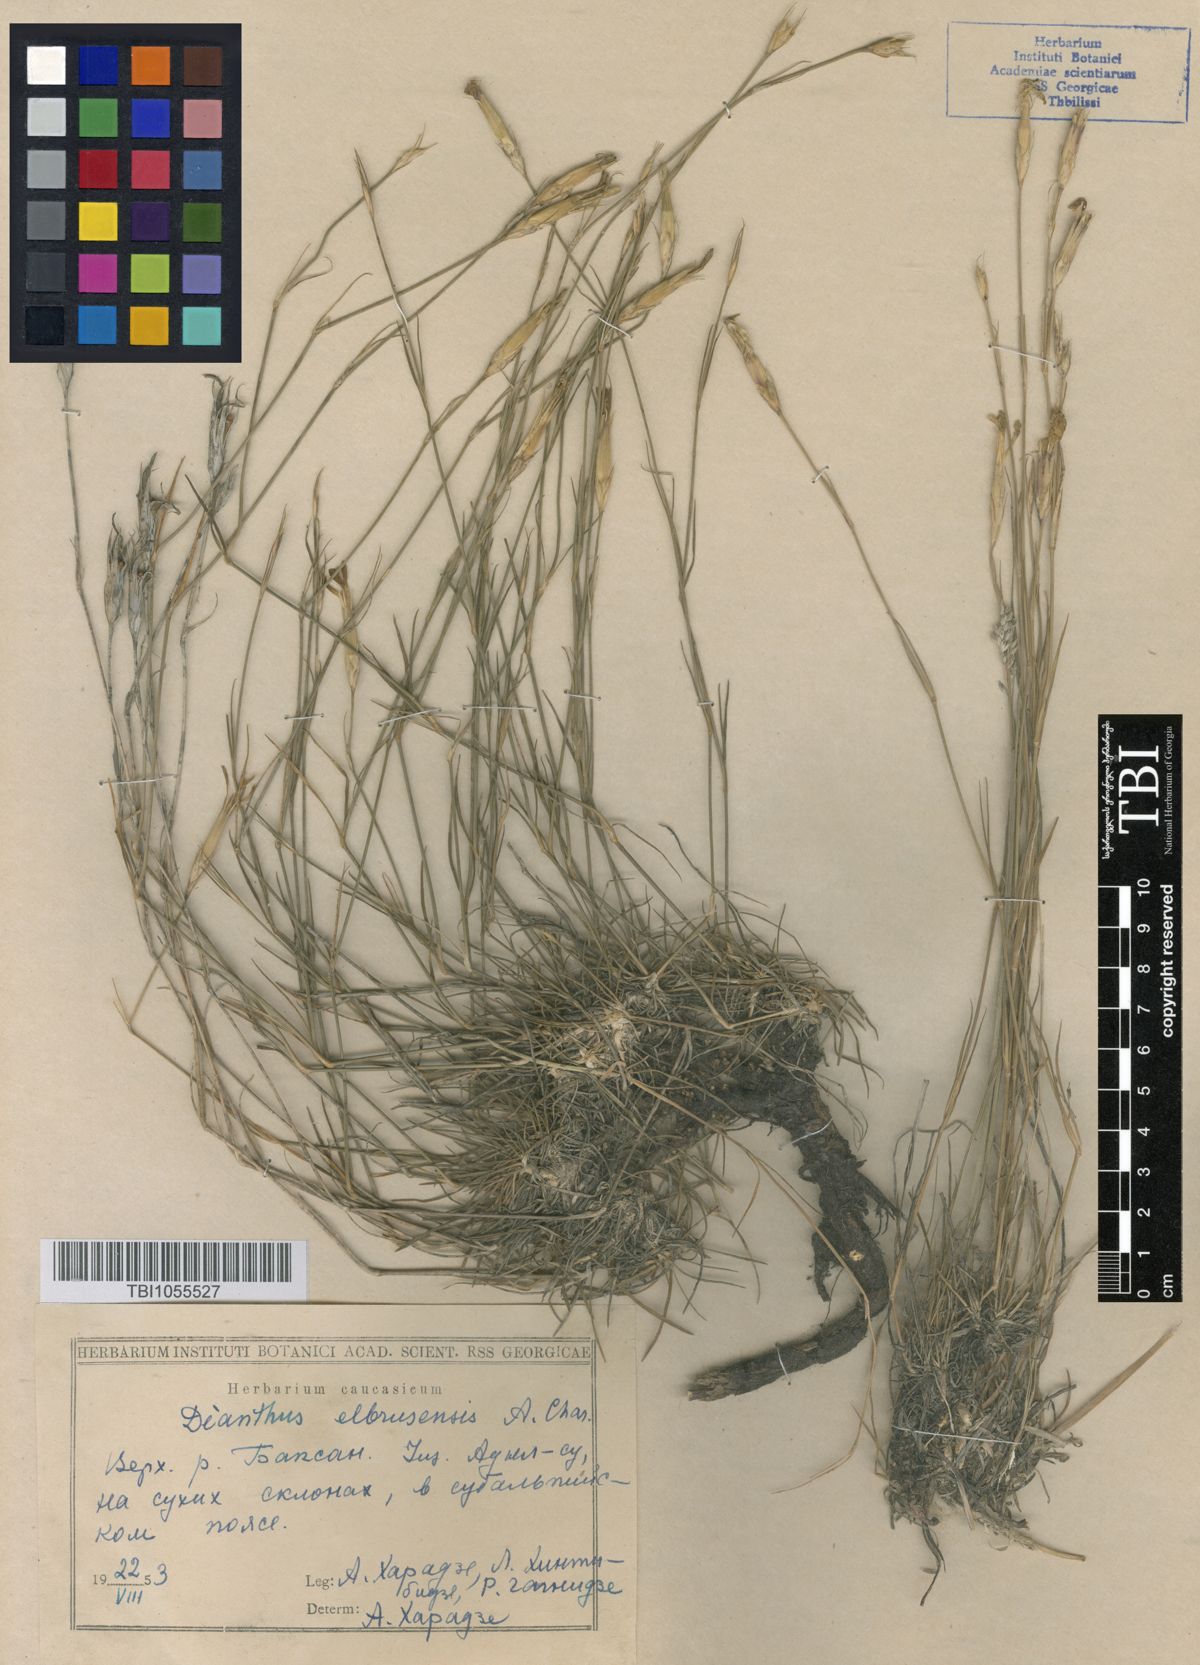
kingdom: Plantae
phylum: Tracheophyta
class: Magnoliopsida
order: Caryophyllales
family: Caryophyllaceae
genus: Dianthus
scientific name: Dianthus
